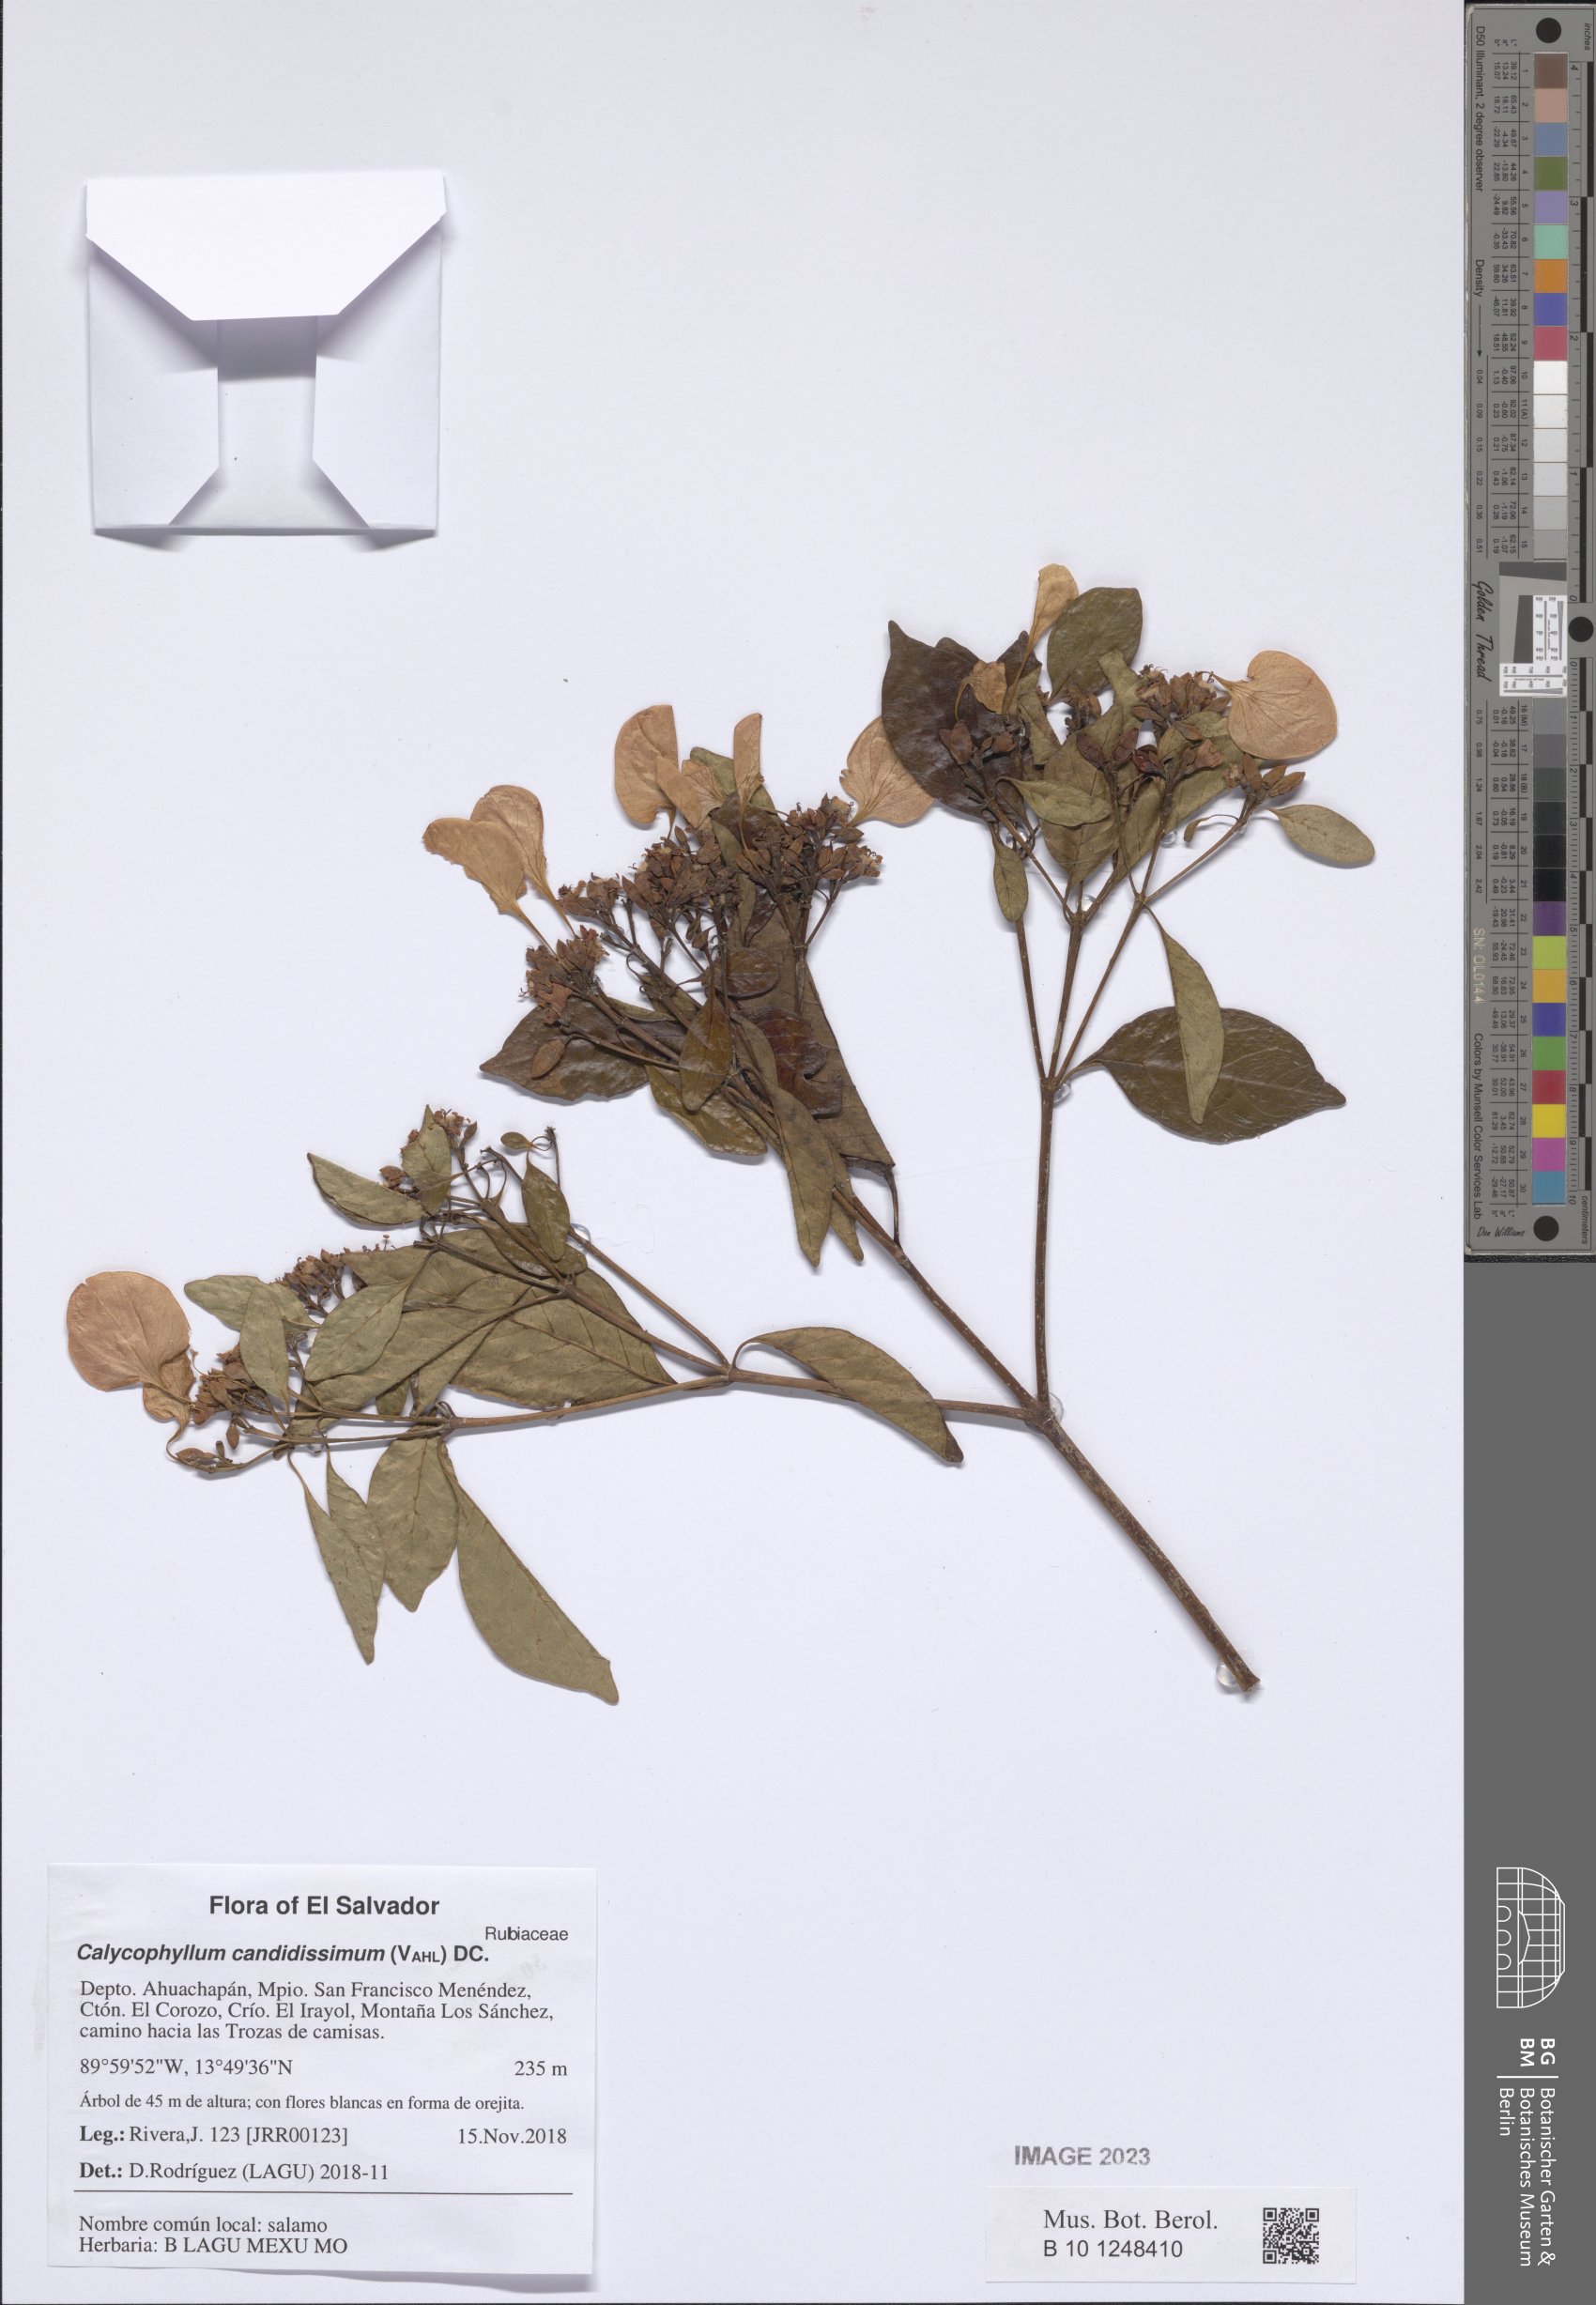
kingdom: Plantae
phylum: Tracheophyta
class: Magnoliopsida
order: Gentianales
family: Rubiaceae
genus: Calycophyllum
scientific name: Calycophyllum candidissimum
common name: Dagame
